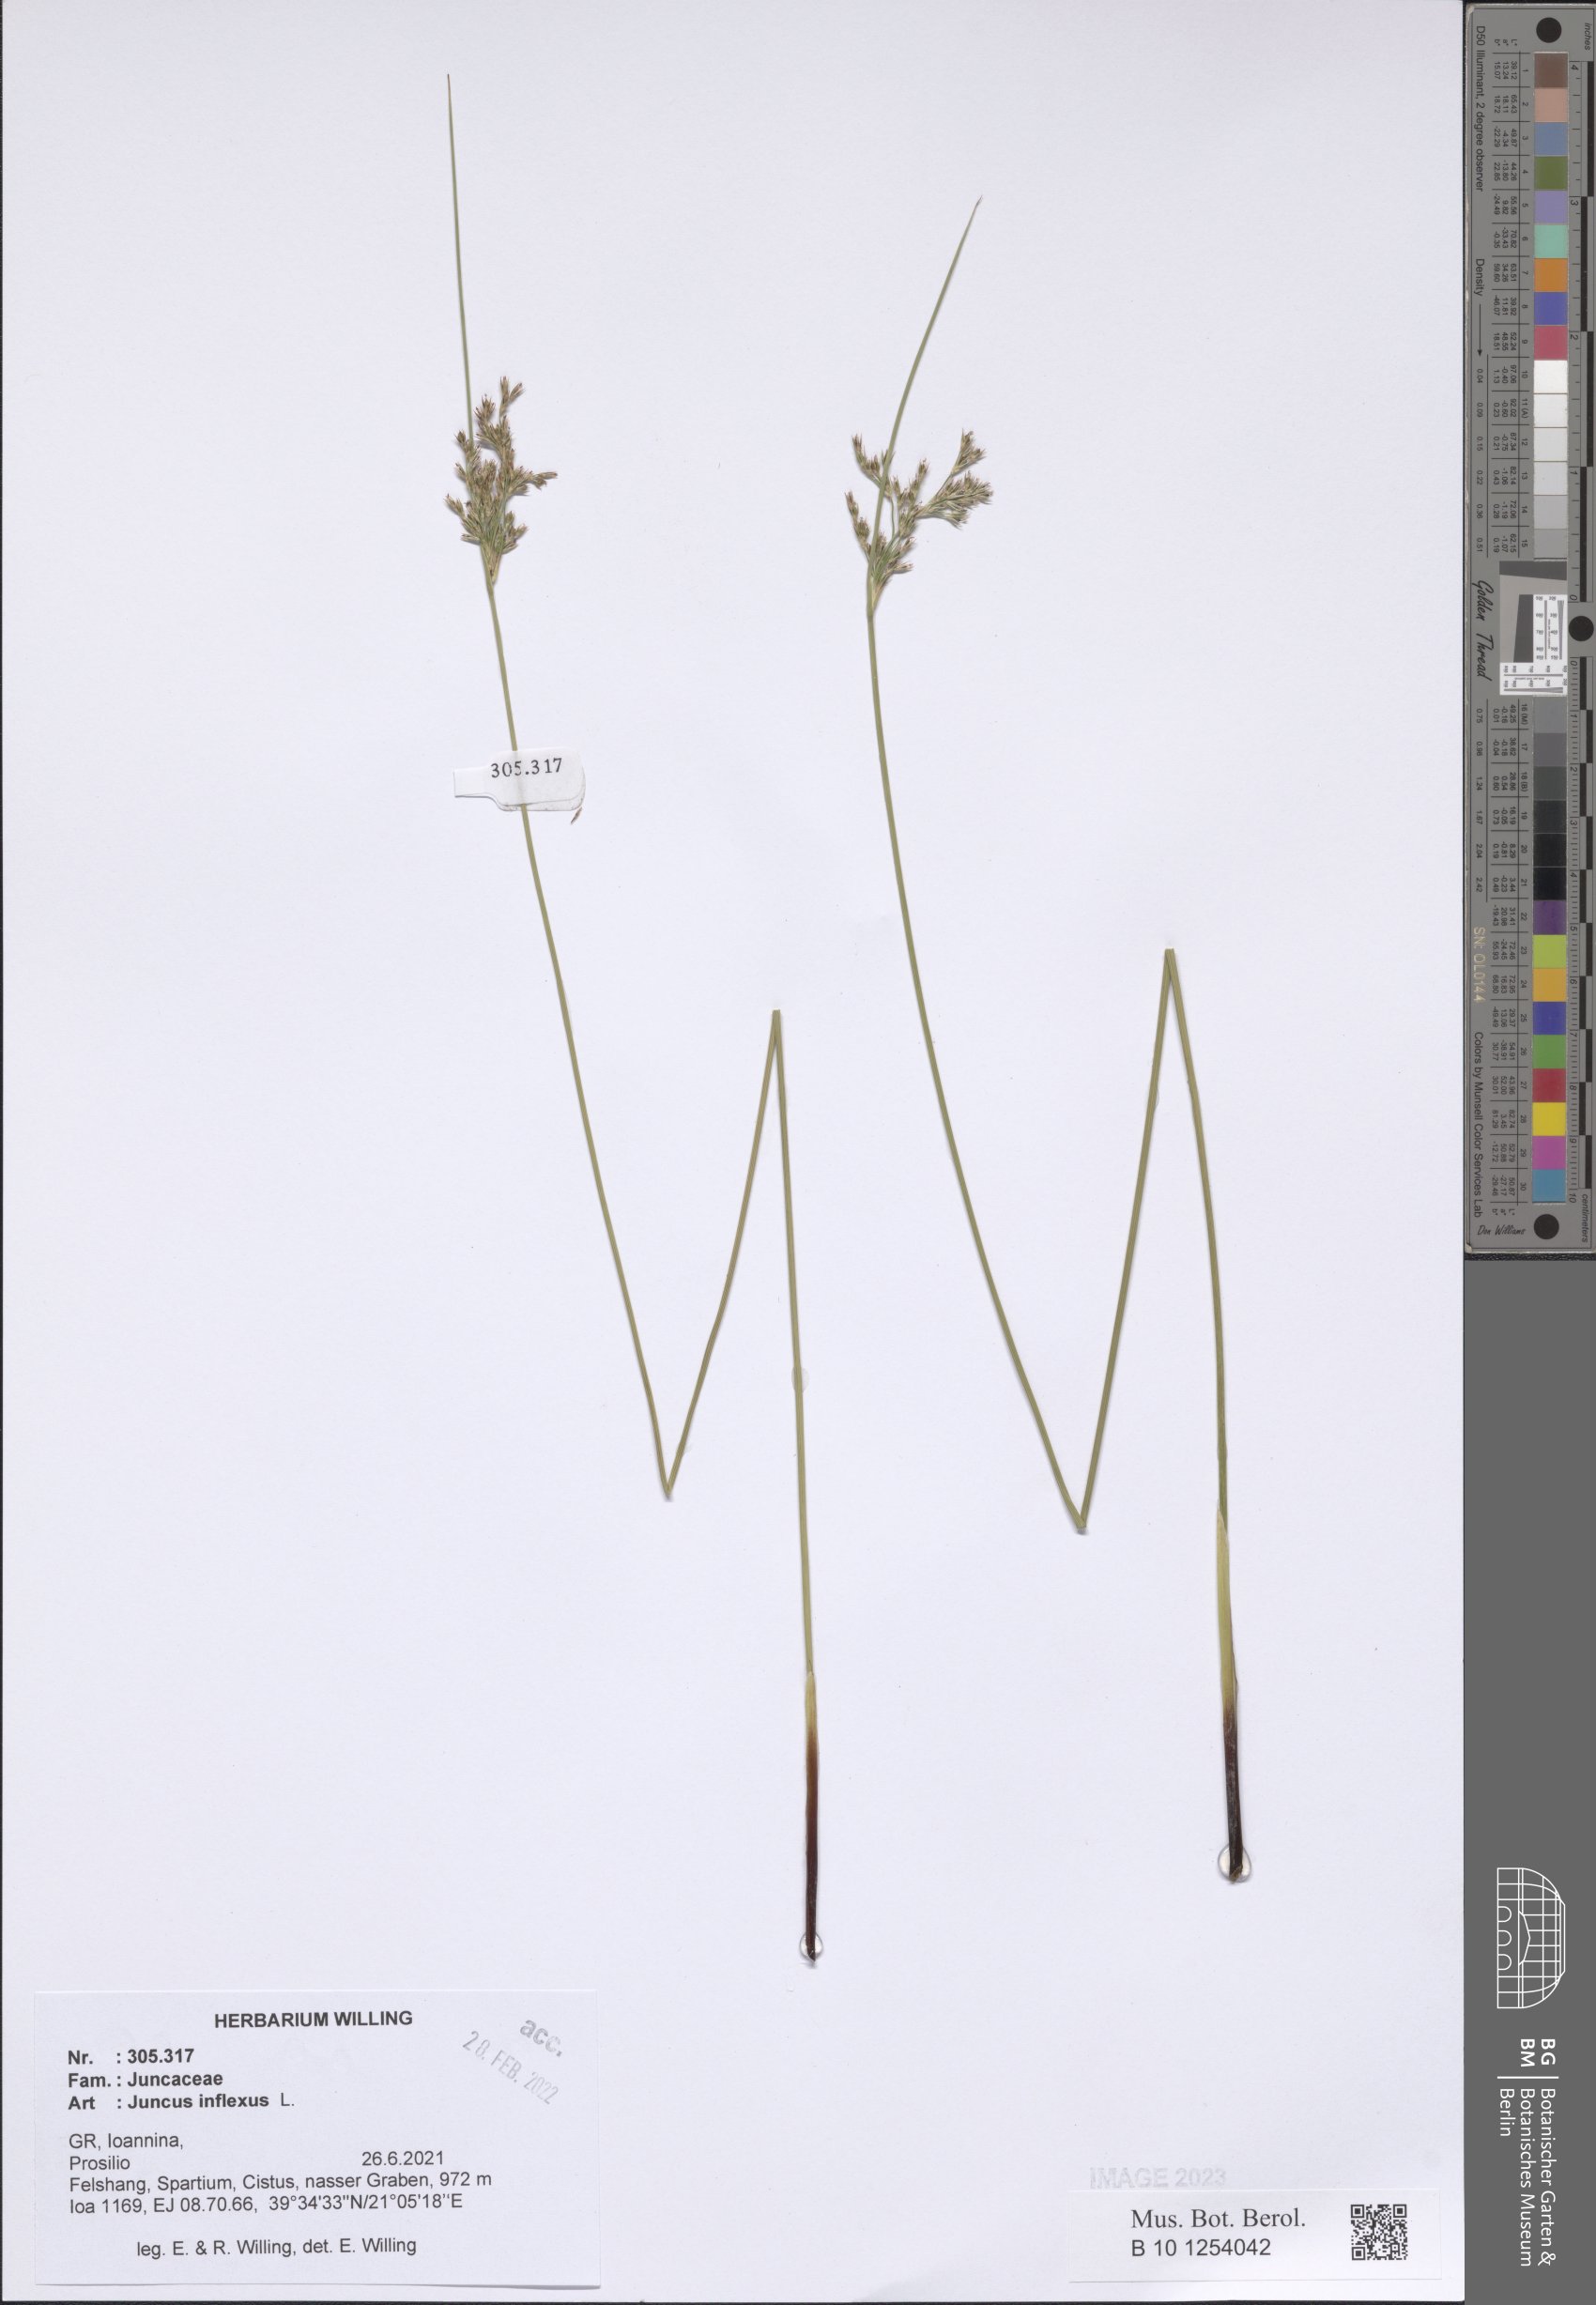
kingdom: Plantae
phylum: Tracheophyta
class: Liliopsida
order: Poales
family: Juncaceae
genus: Juncus
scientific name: Juncus inflexus
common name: Hard rush
